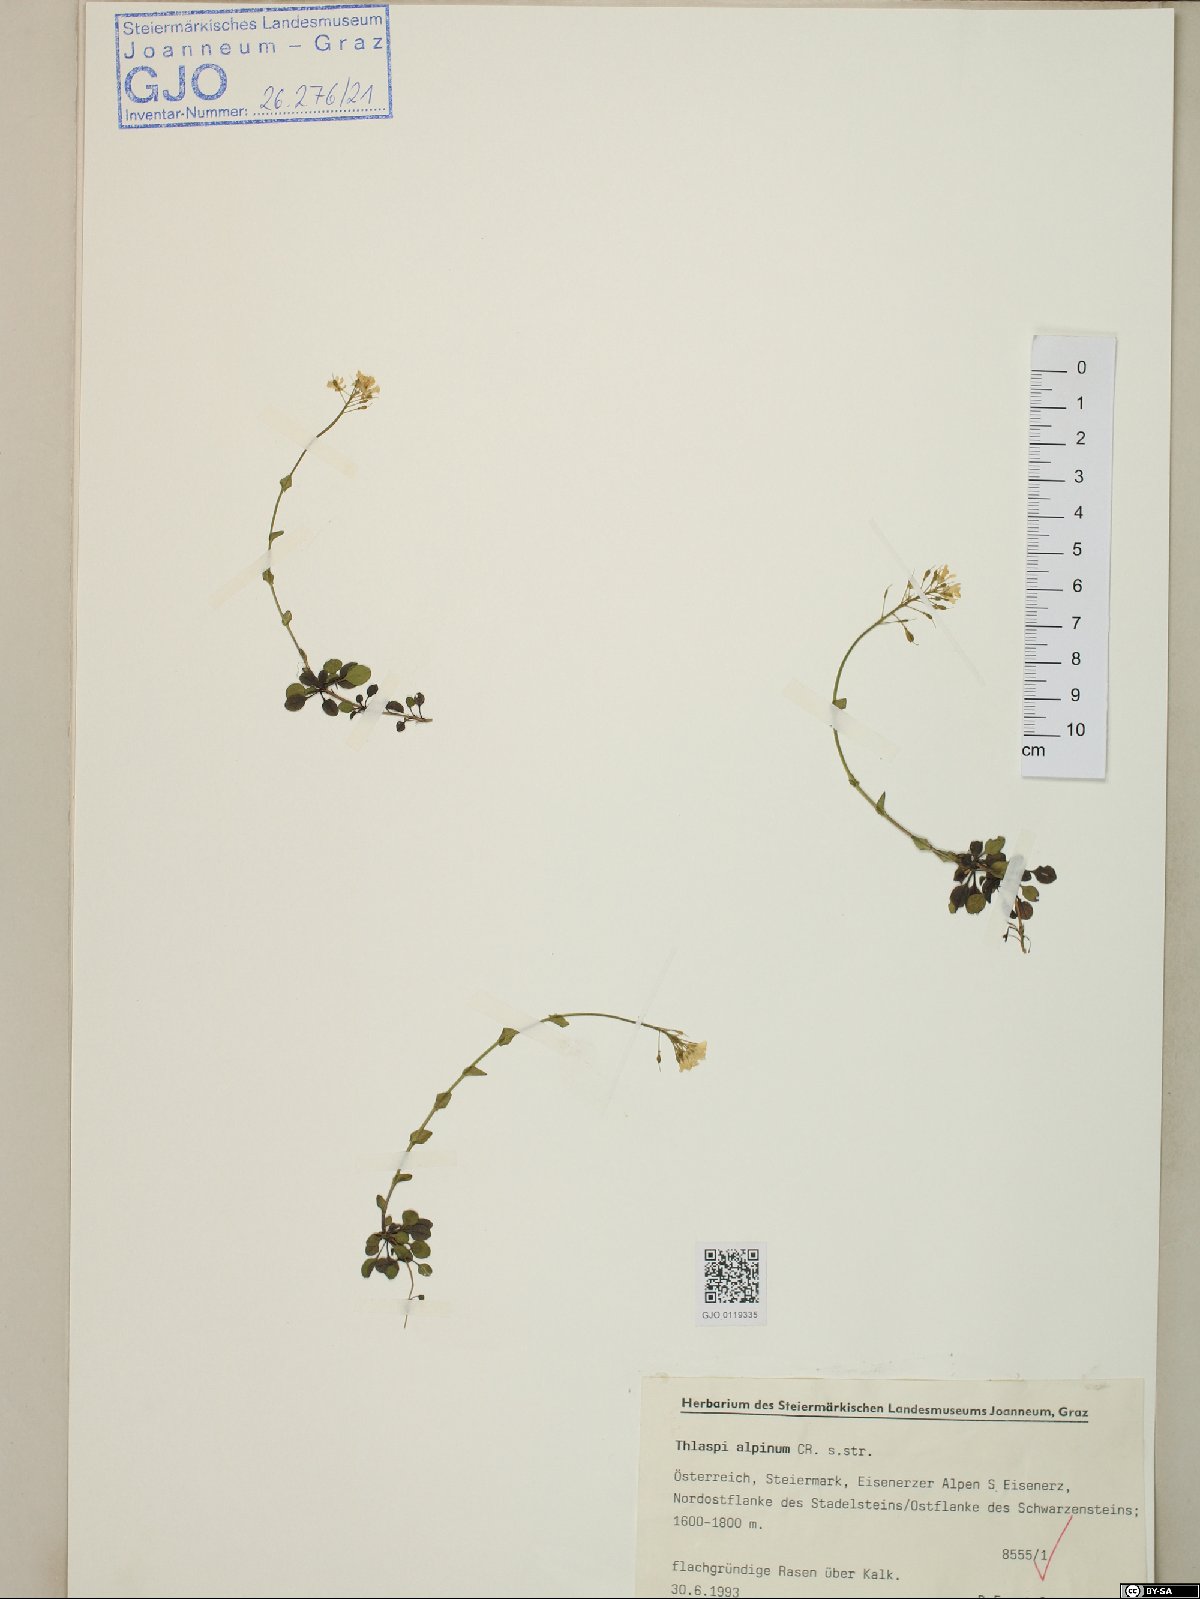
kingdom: Plantae
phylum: Tracheophyta
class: Magnoliopsida
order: Brassicales
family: Brassicaceae
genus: Noccaea
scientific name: Noccaea alpestris
